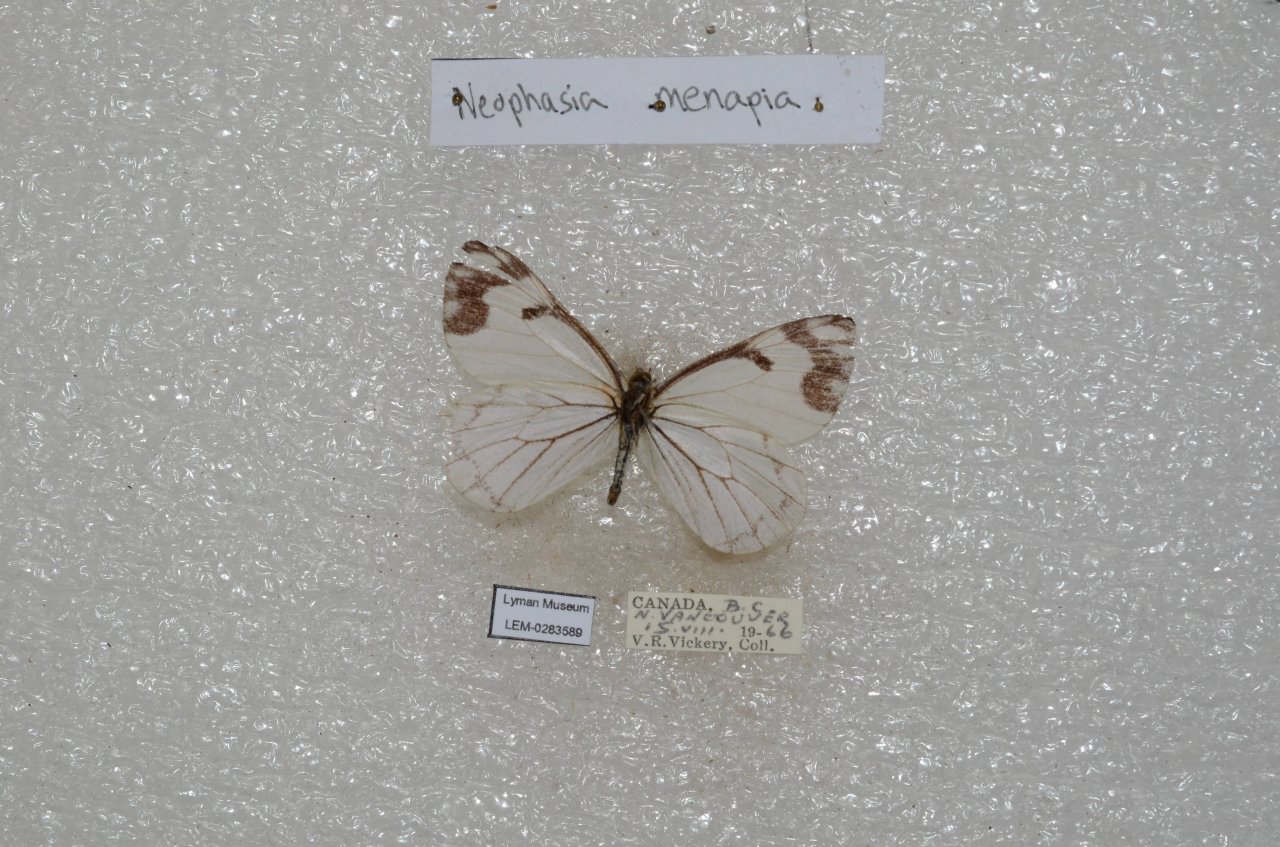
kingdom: Animalia
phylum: Arthropoda
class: Insecta
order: Lepidoptera
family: Pieridae
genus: Neophasia
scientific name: Neophasia menapia
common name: Pine White
